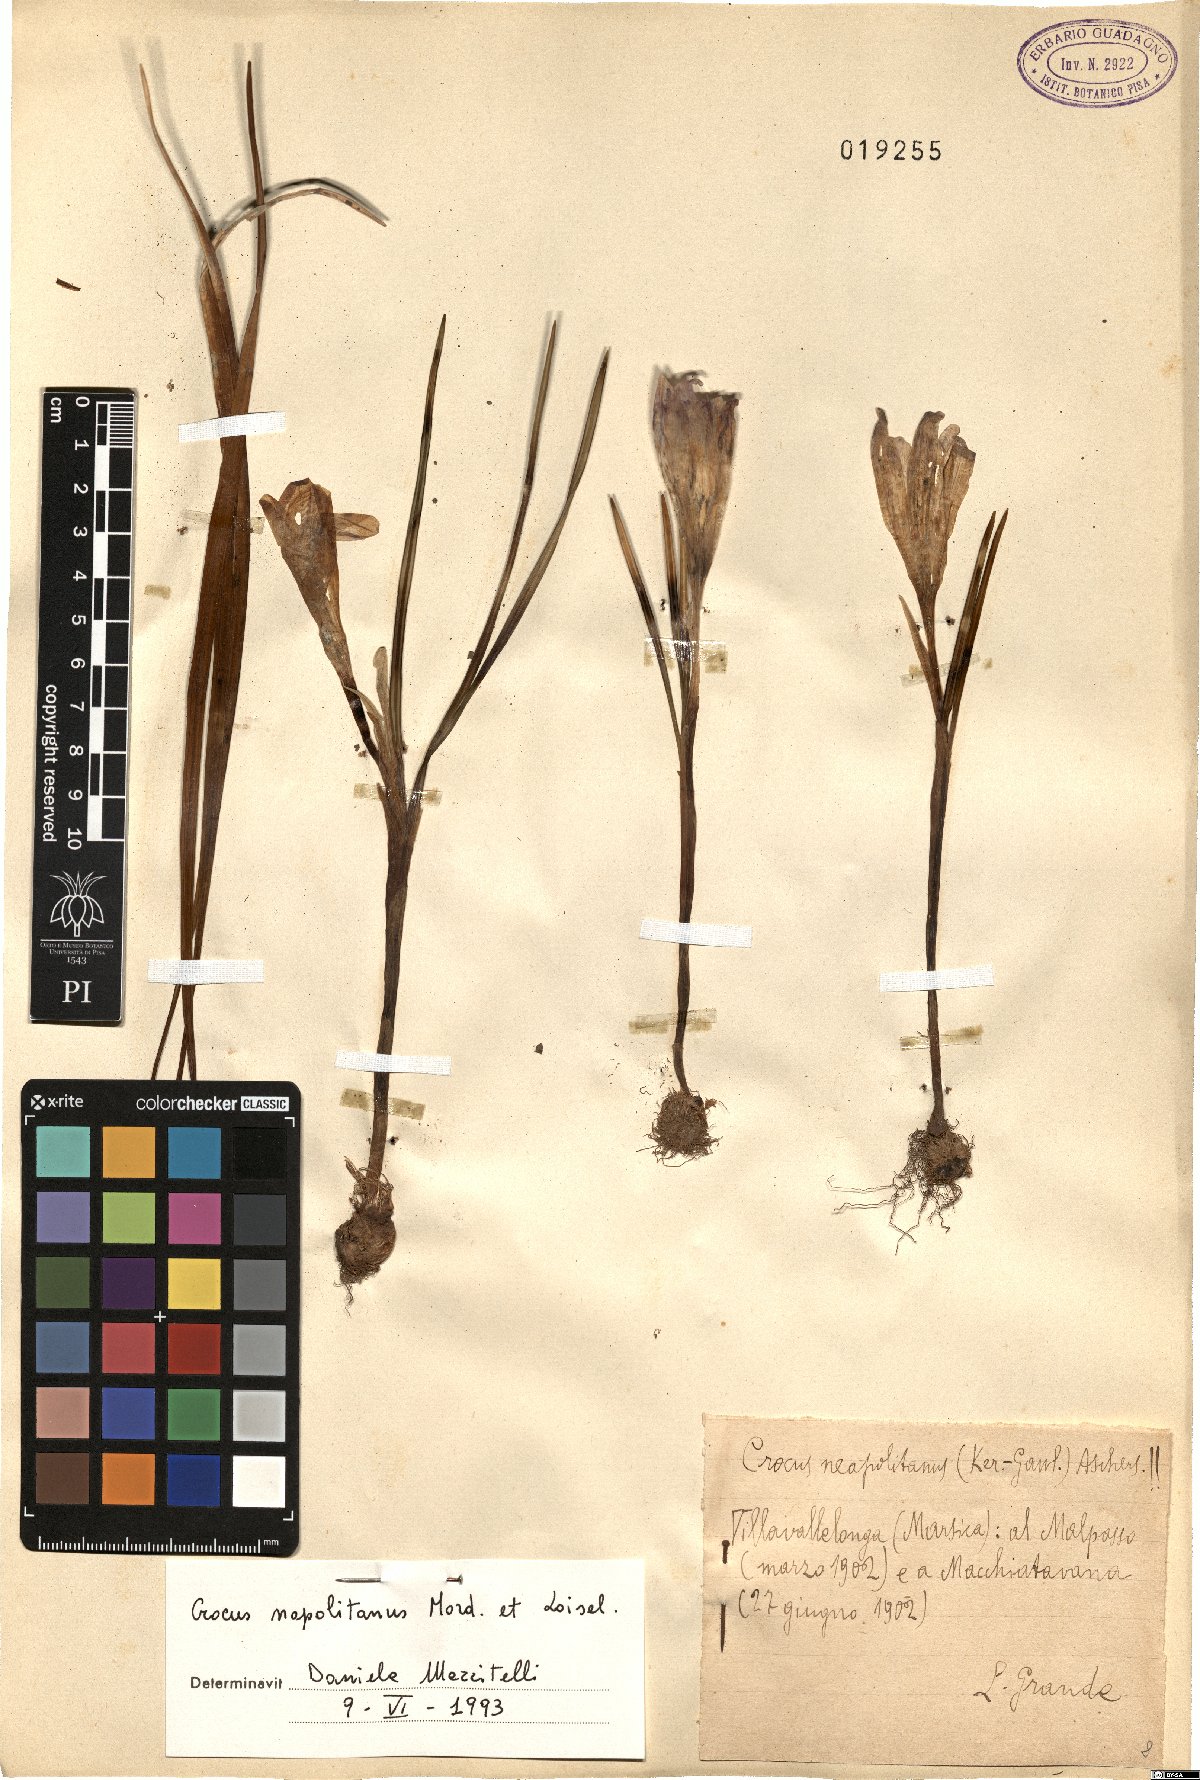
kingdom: Plantae
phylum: Tracheophyta
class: Liliopsida
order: Asparagales
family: Iridaceae
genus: Crocus
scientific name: Crocus neapolitanus
